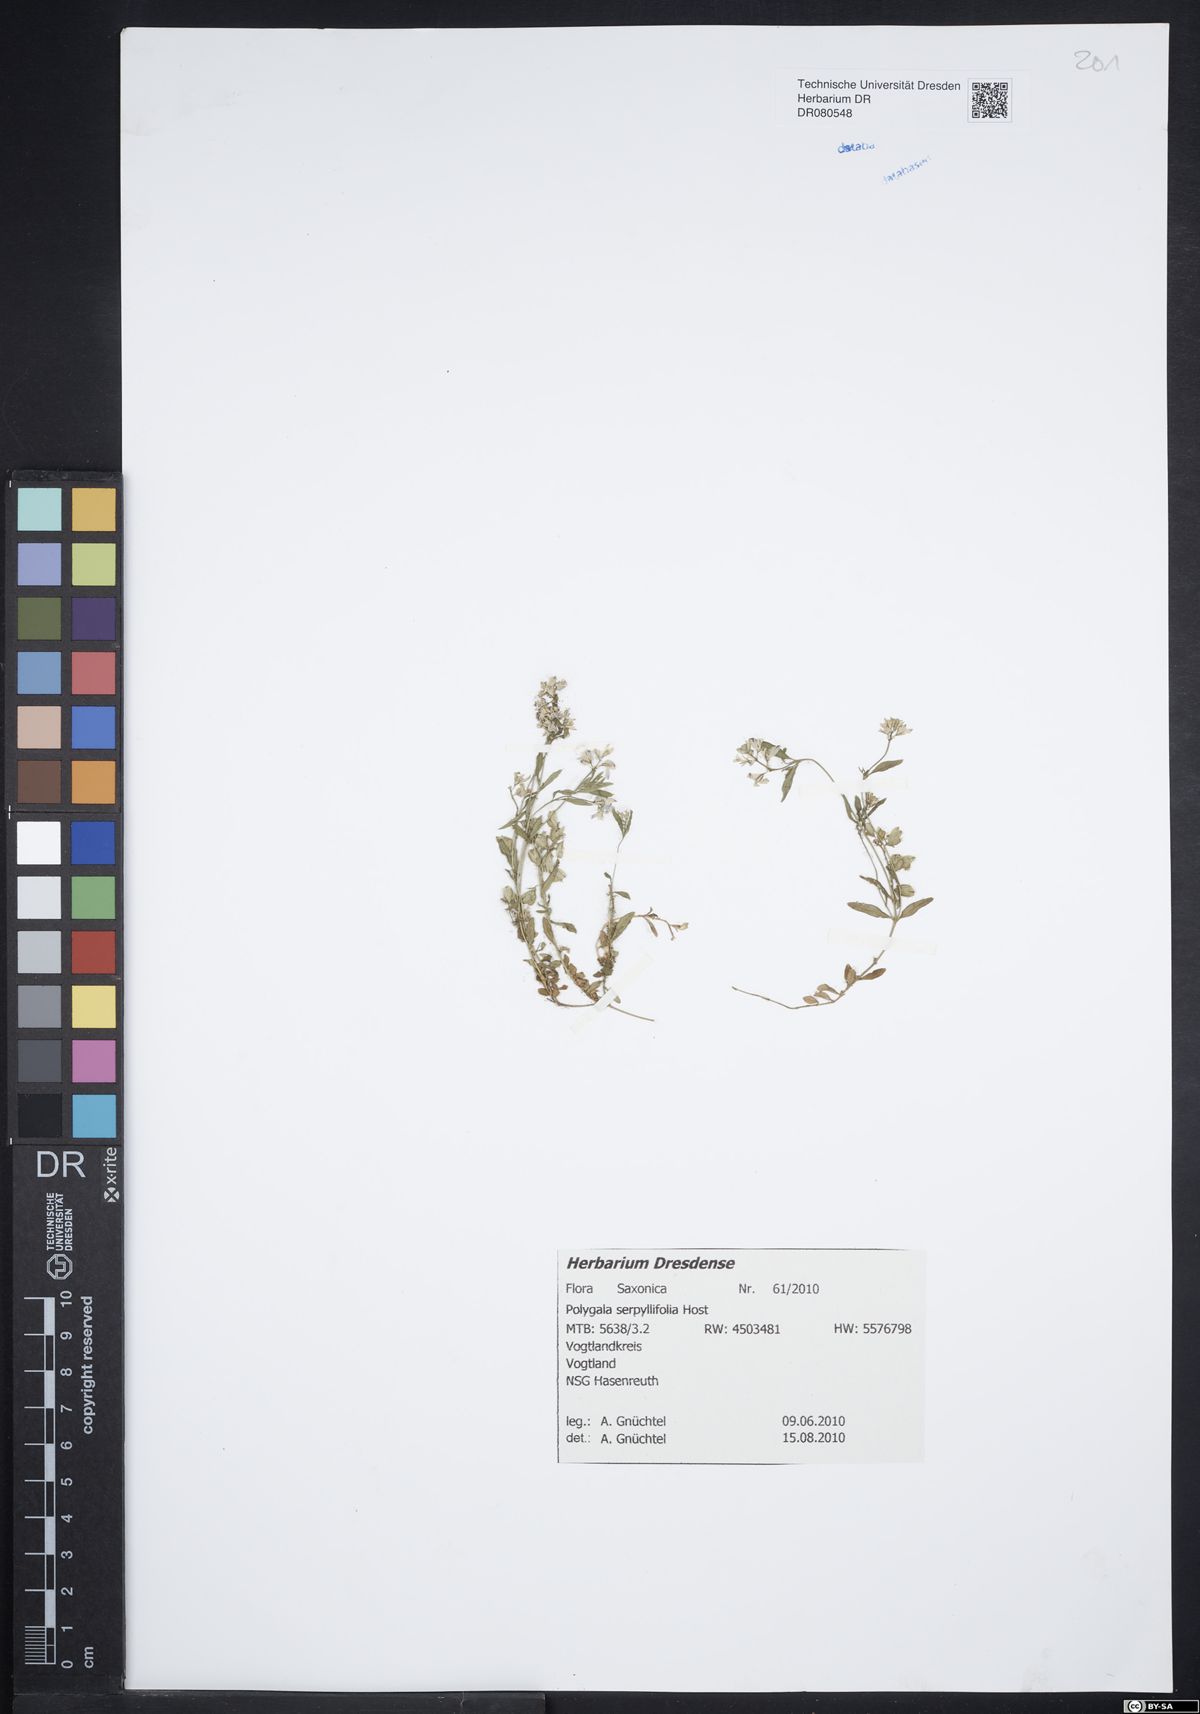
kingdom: Plantae
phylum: Tracheophyta
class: Magnoliopsida
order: Fabales
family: Polygalaceae
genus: Polygala
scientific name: Polygala serpyllifolia
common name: Heath milkwort
